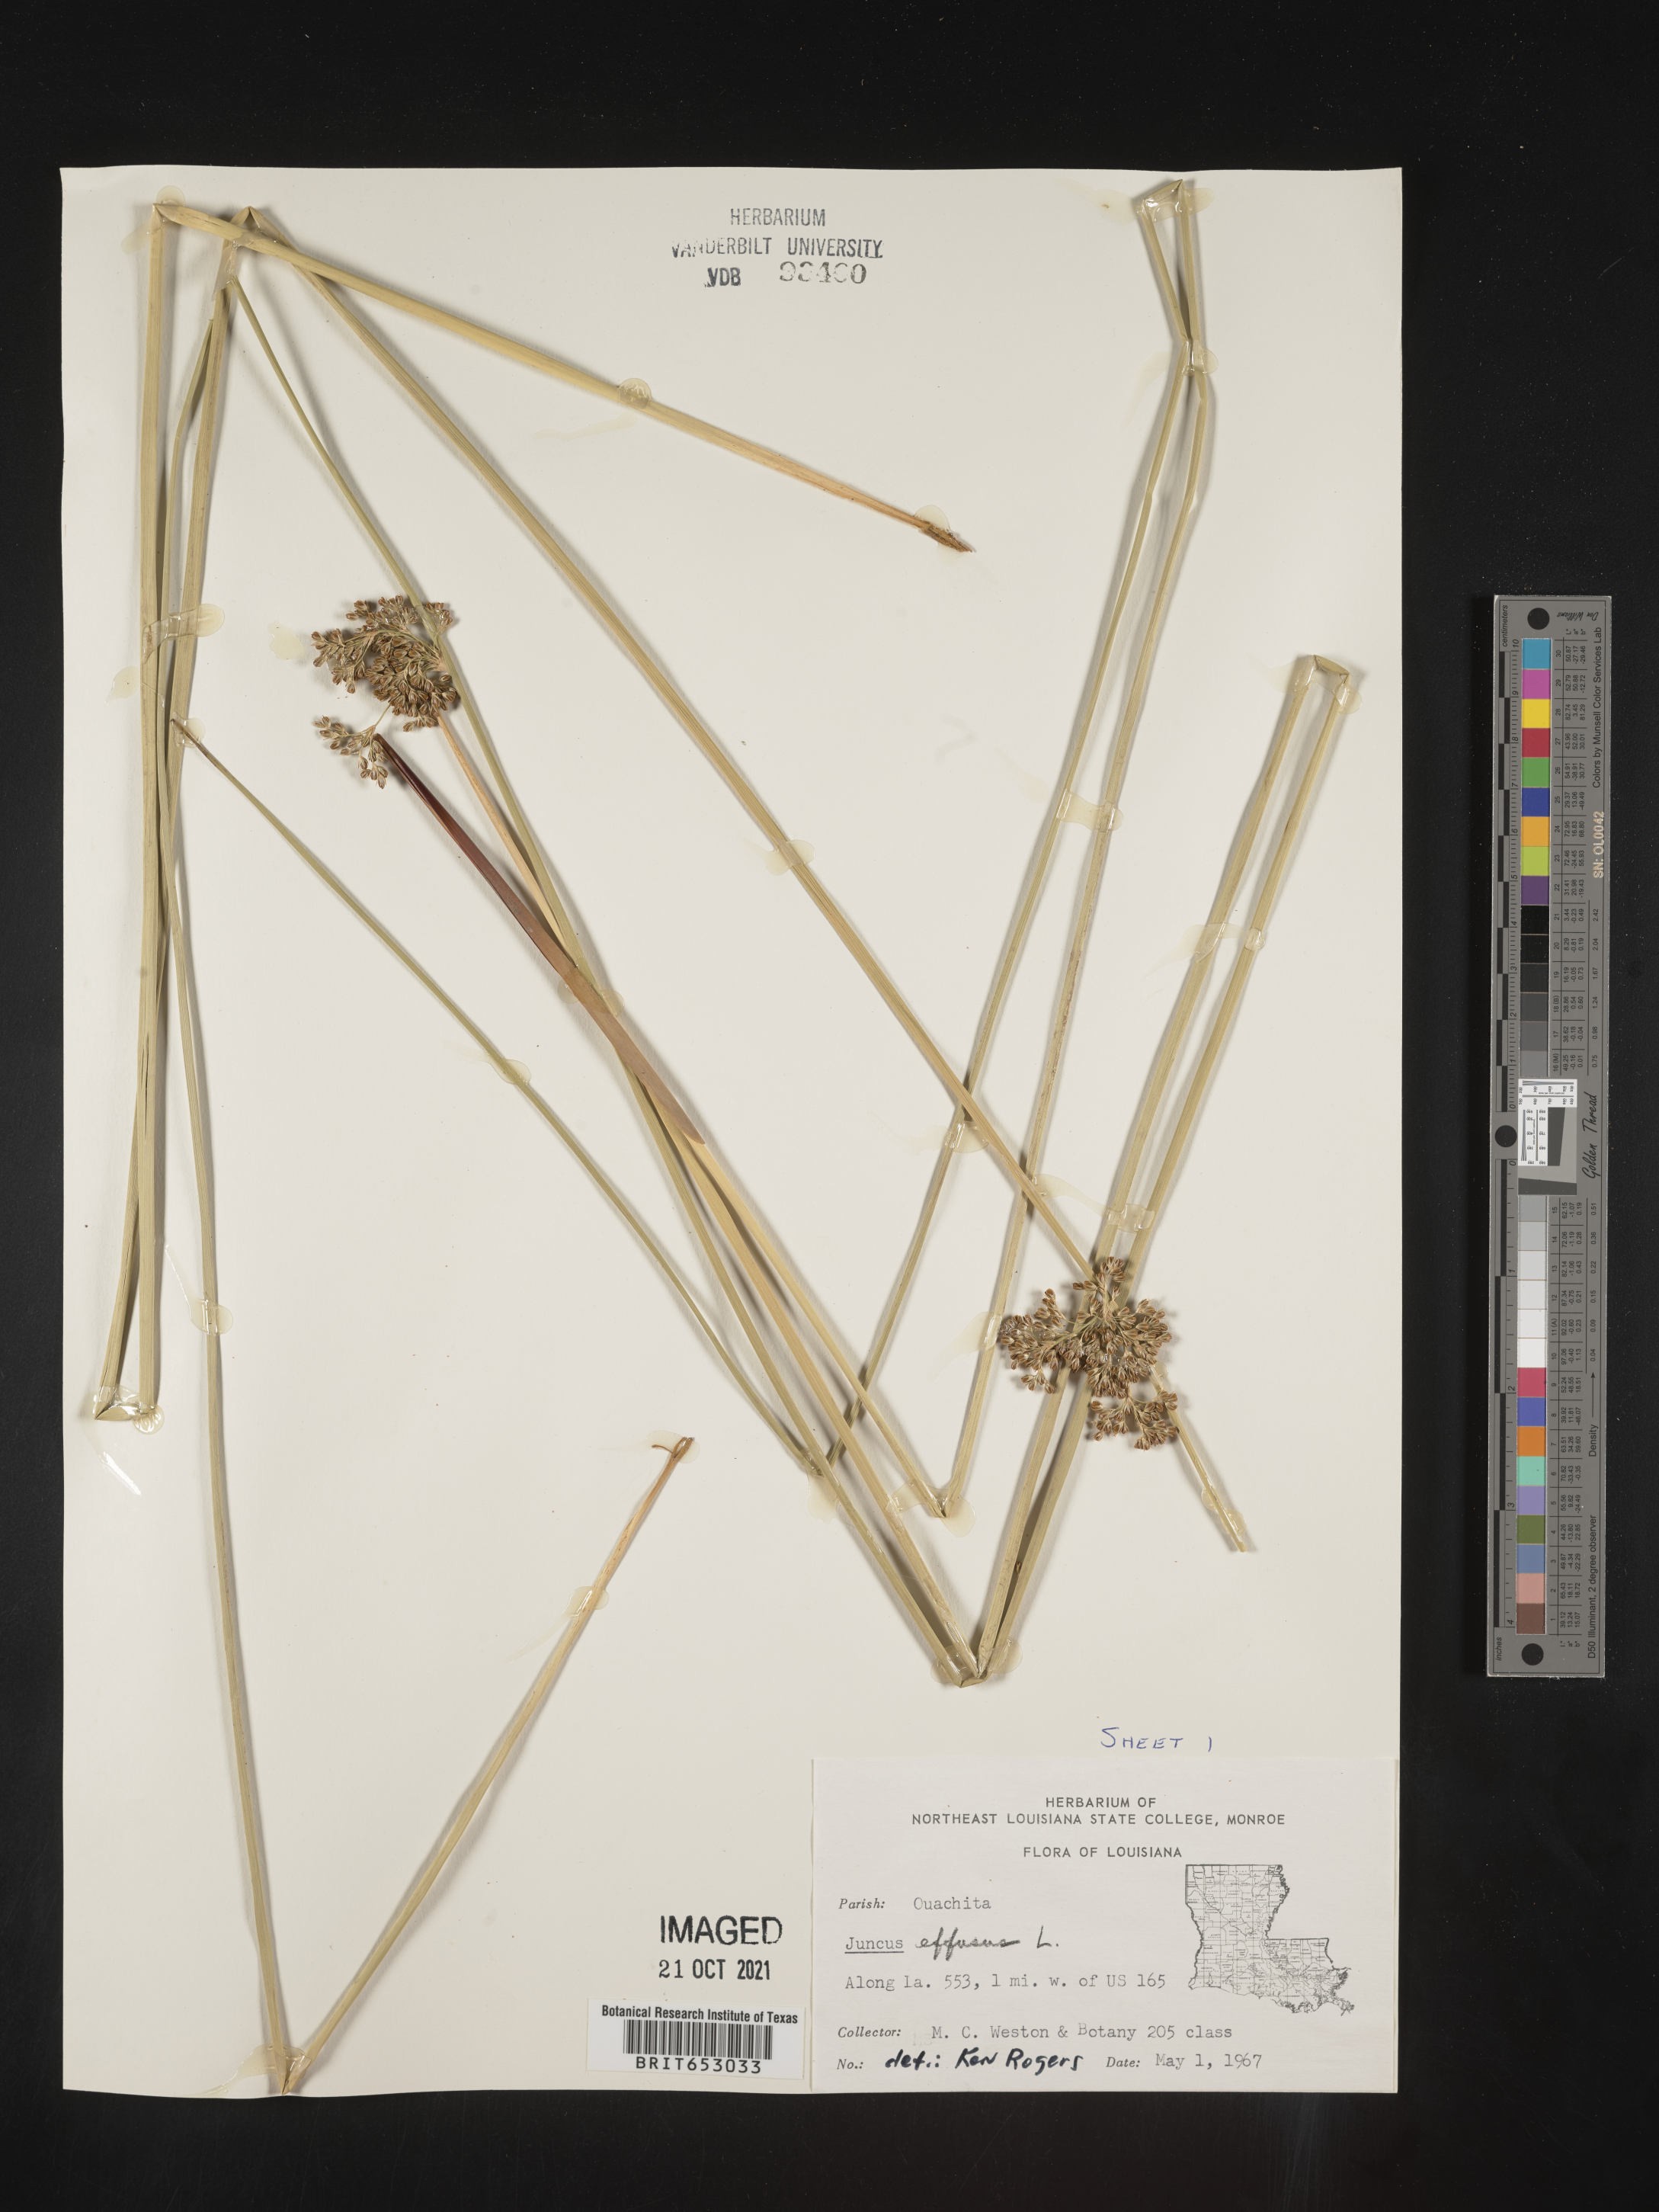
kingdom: Plantae
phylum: Tracheophyta
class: Liliopsida
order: Poales
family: Juncaceae
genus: Juncus
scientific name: Juncus effusus
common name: Soft rush
